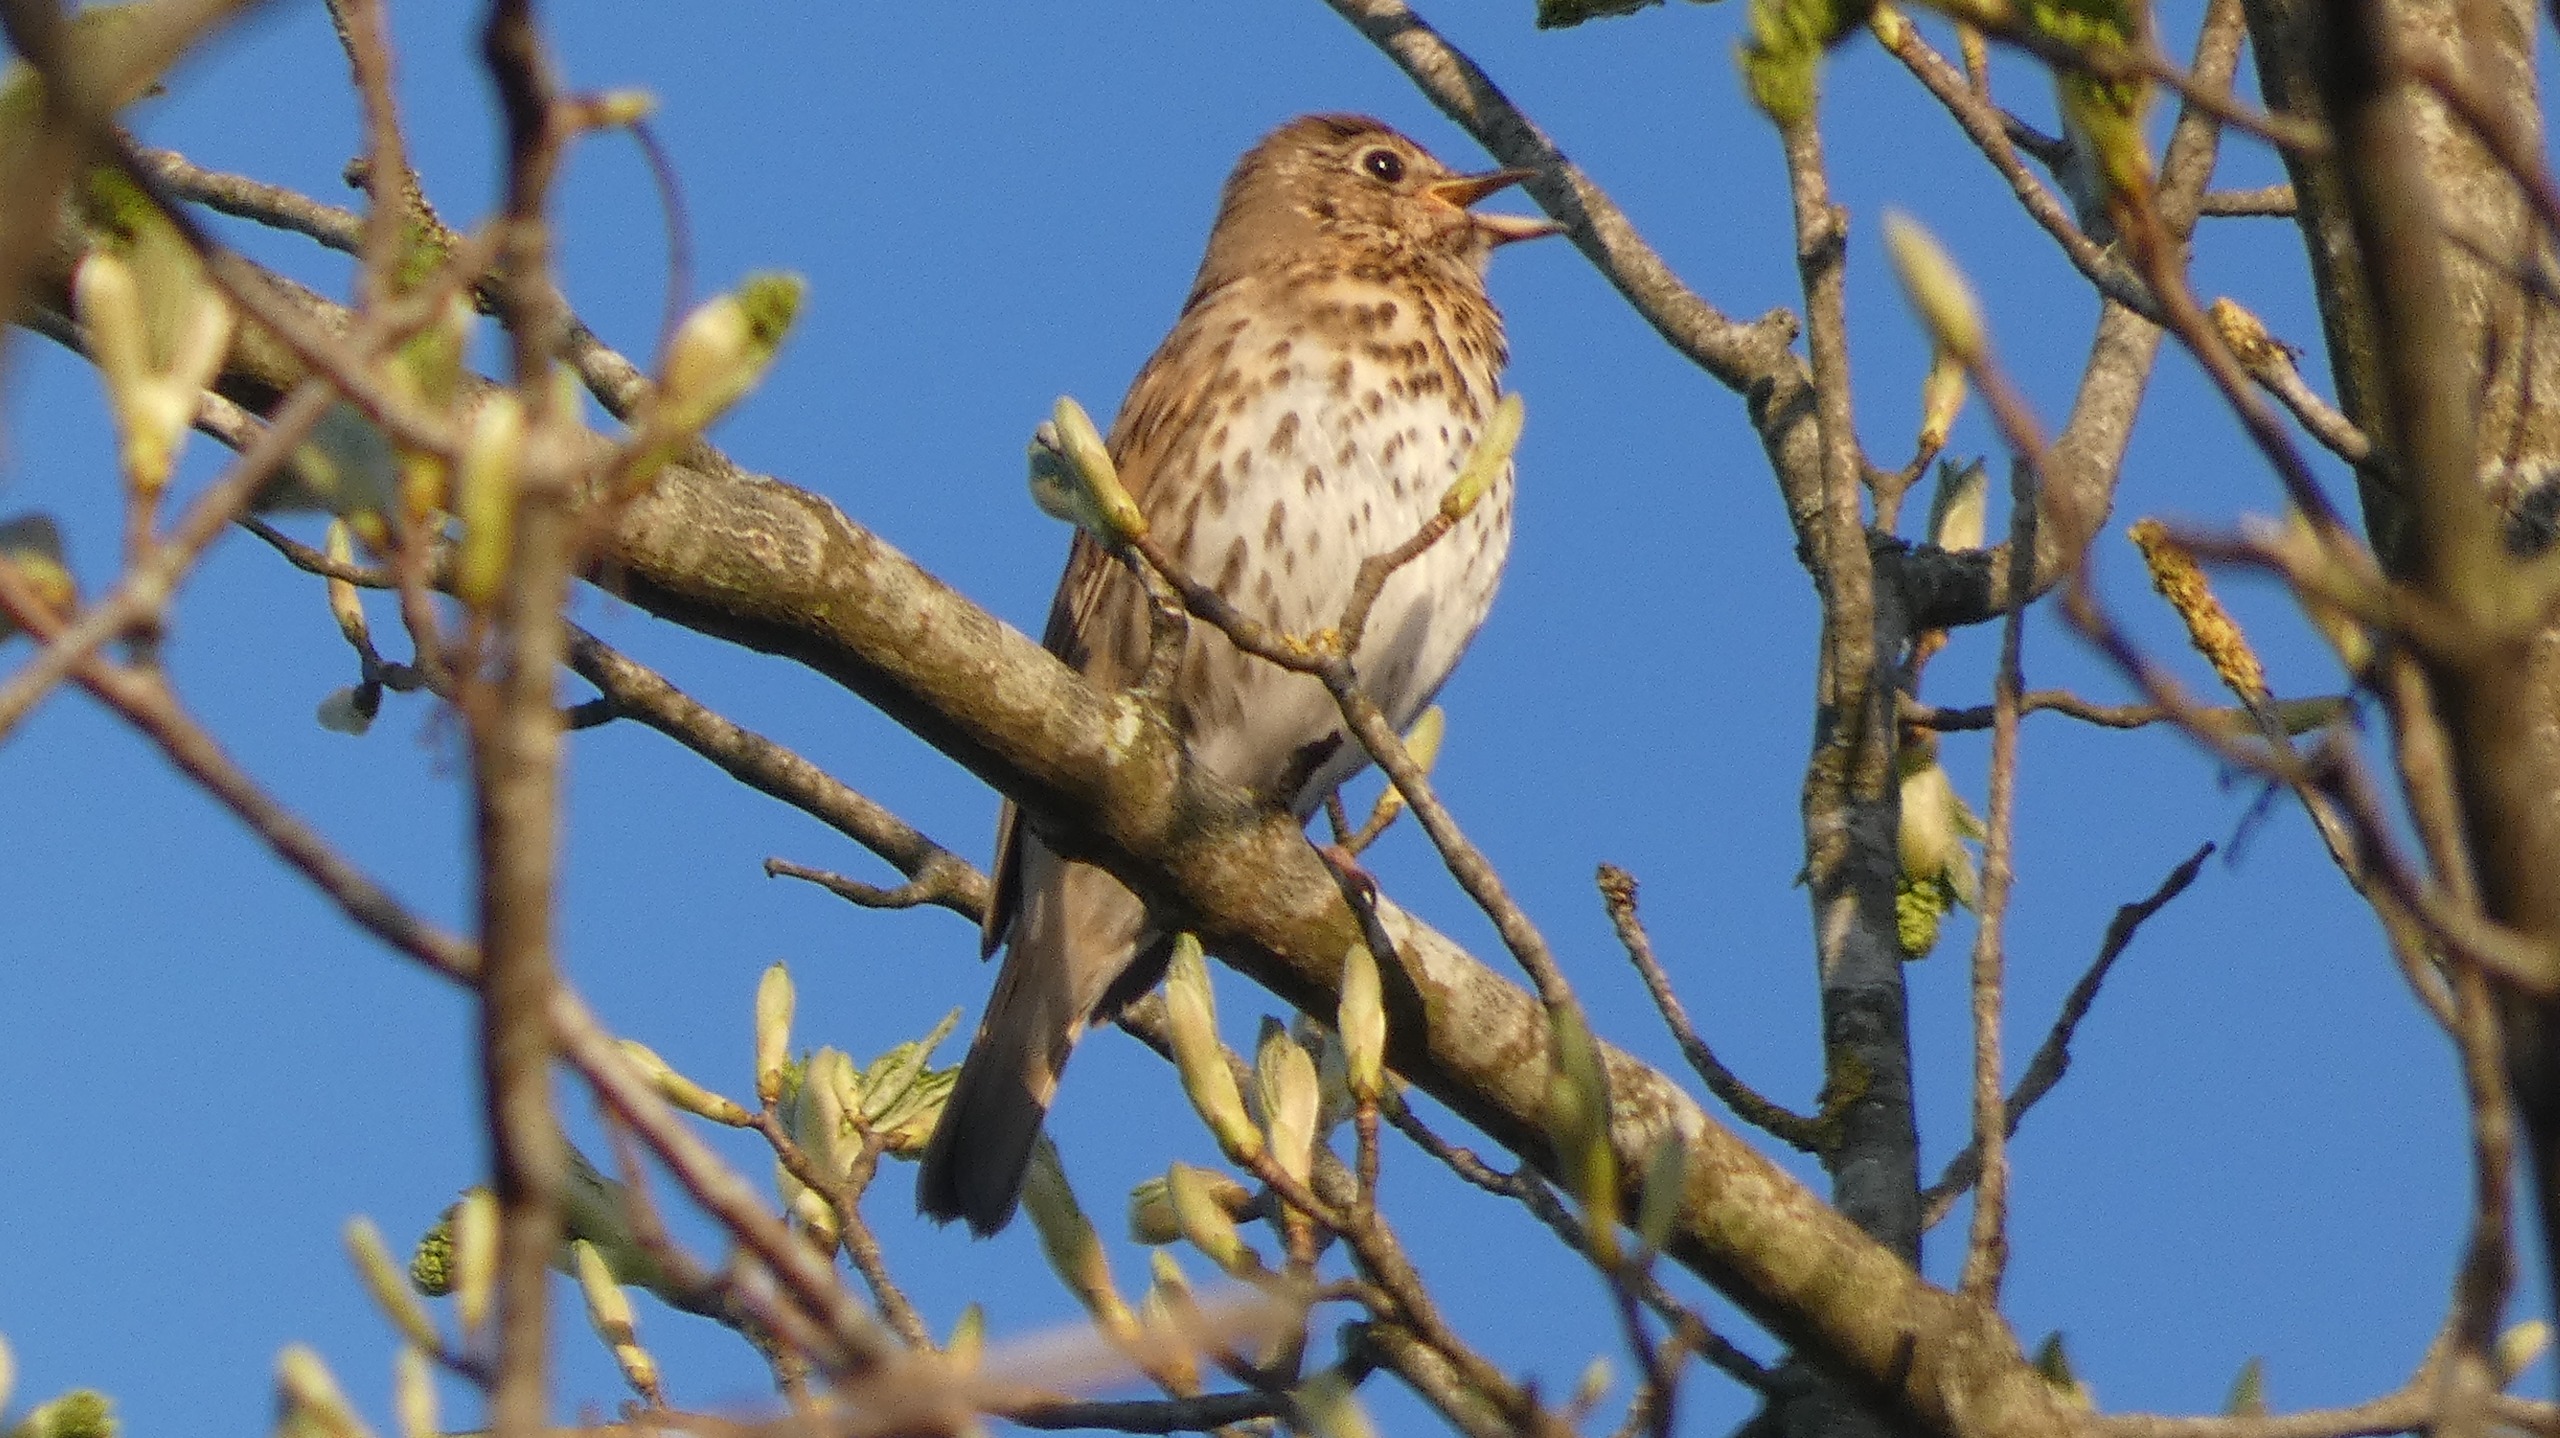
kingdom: Animalia
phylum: Chordata
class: Aves
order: Passeriformes
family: Turdidae
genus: Turdus
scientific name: Turdus philomelos
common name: Sangdrossel
